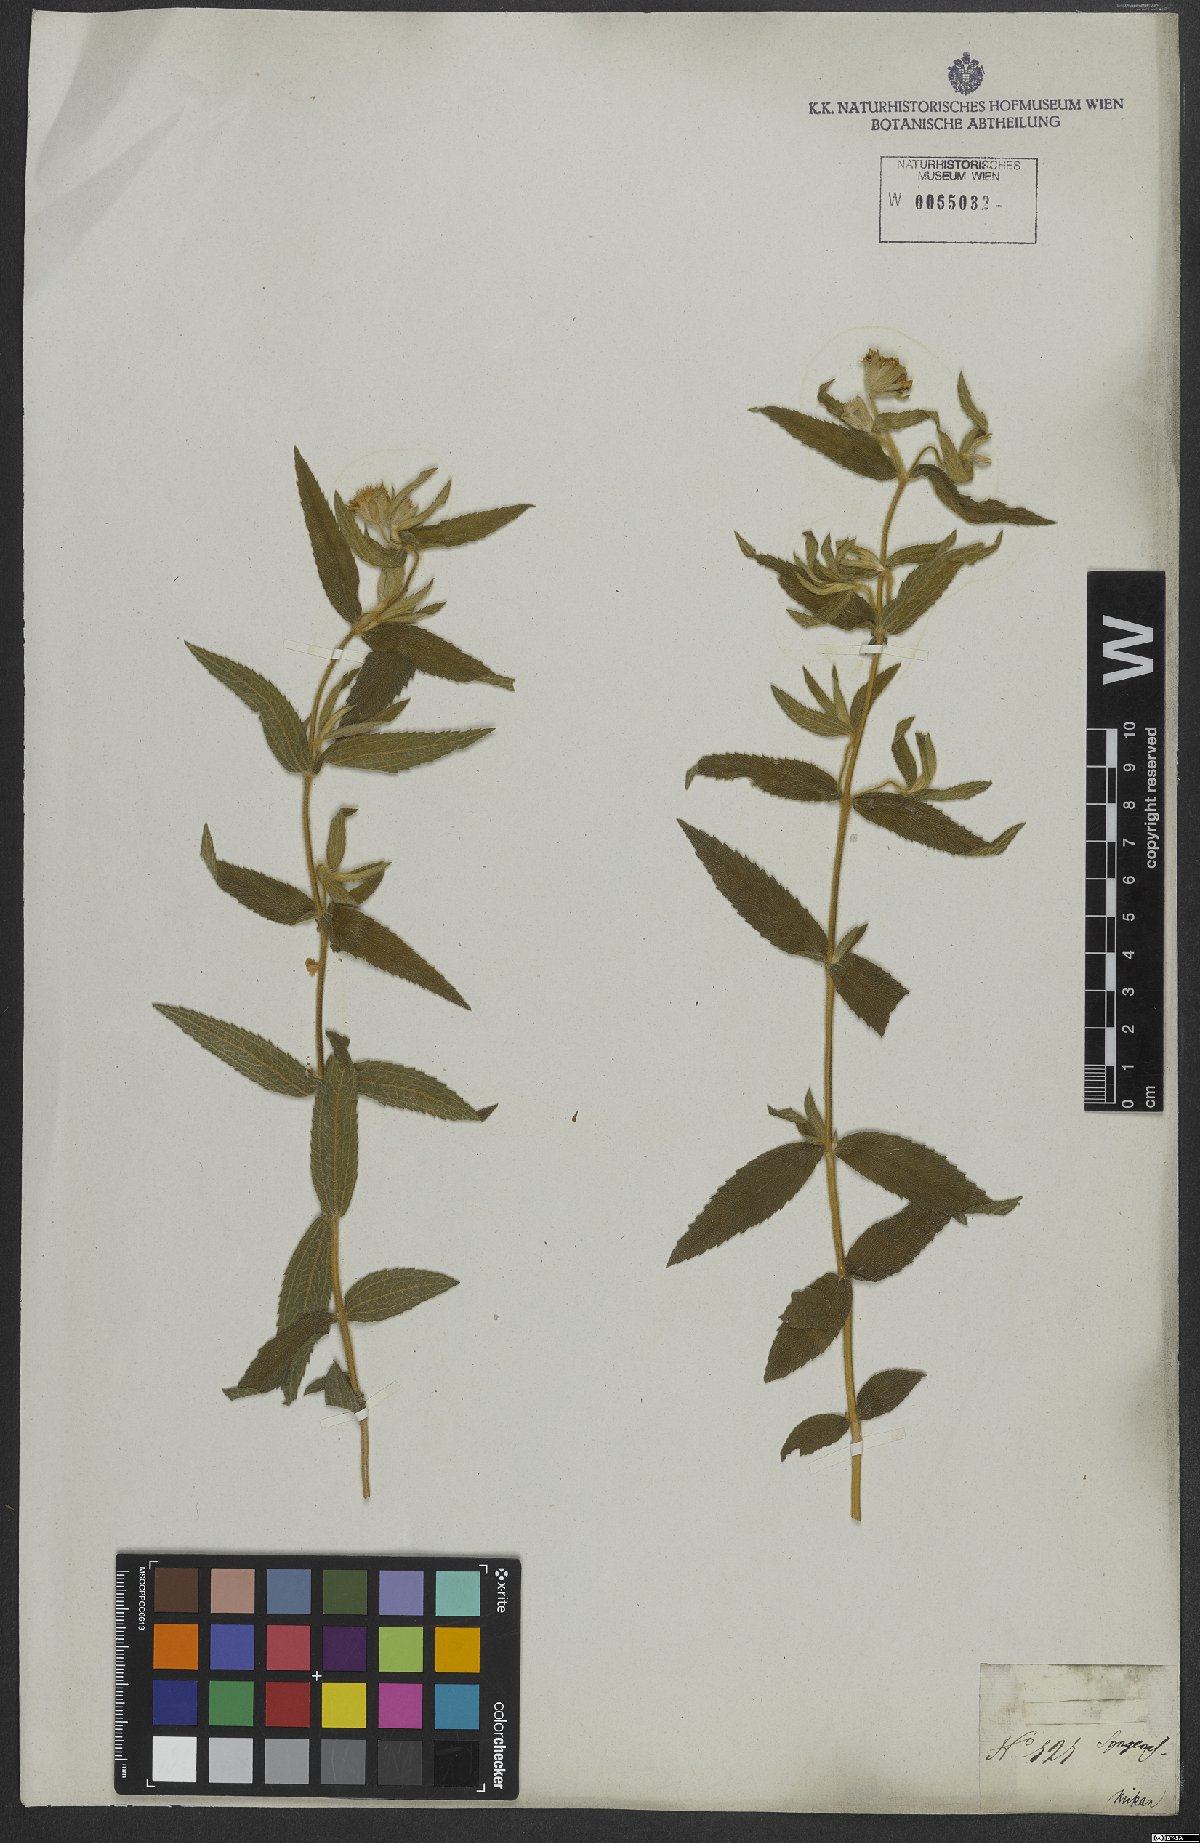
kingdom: Plantae
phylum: Tracheophyta
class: Magnoliopsida
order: Asterales
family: Asteraceae
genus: Wedelia
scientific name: Wedelia macrodonta
